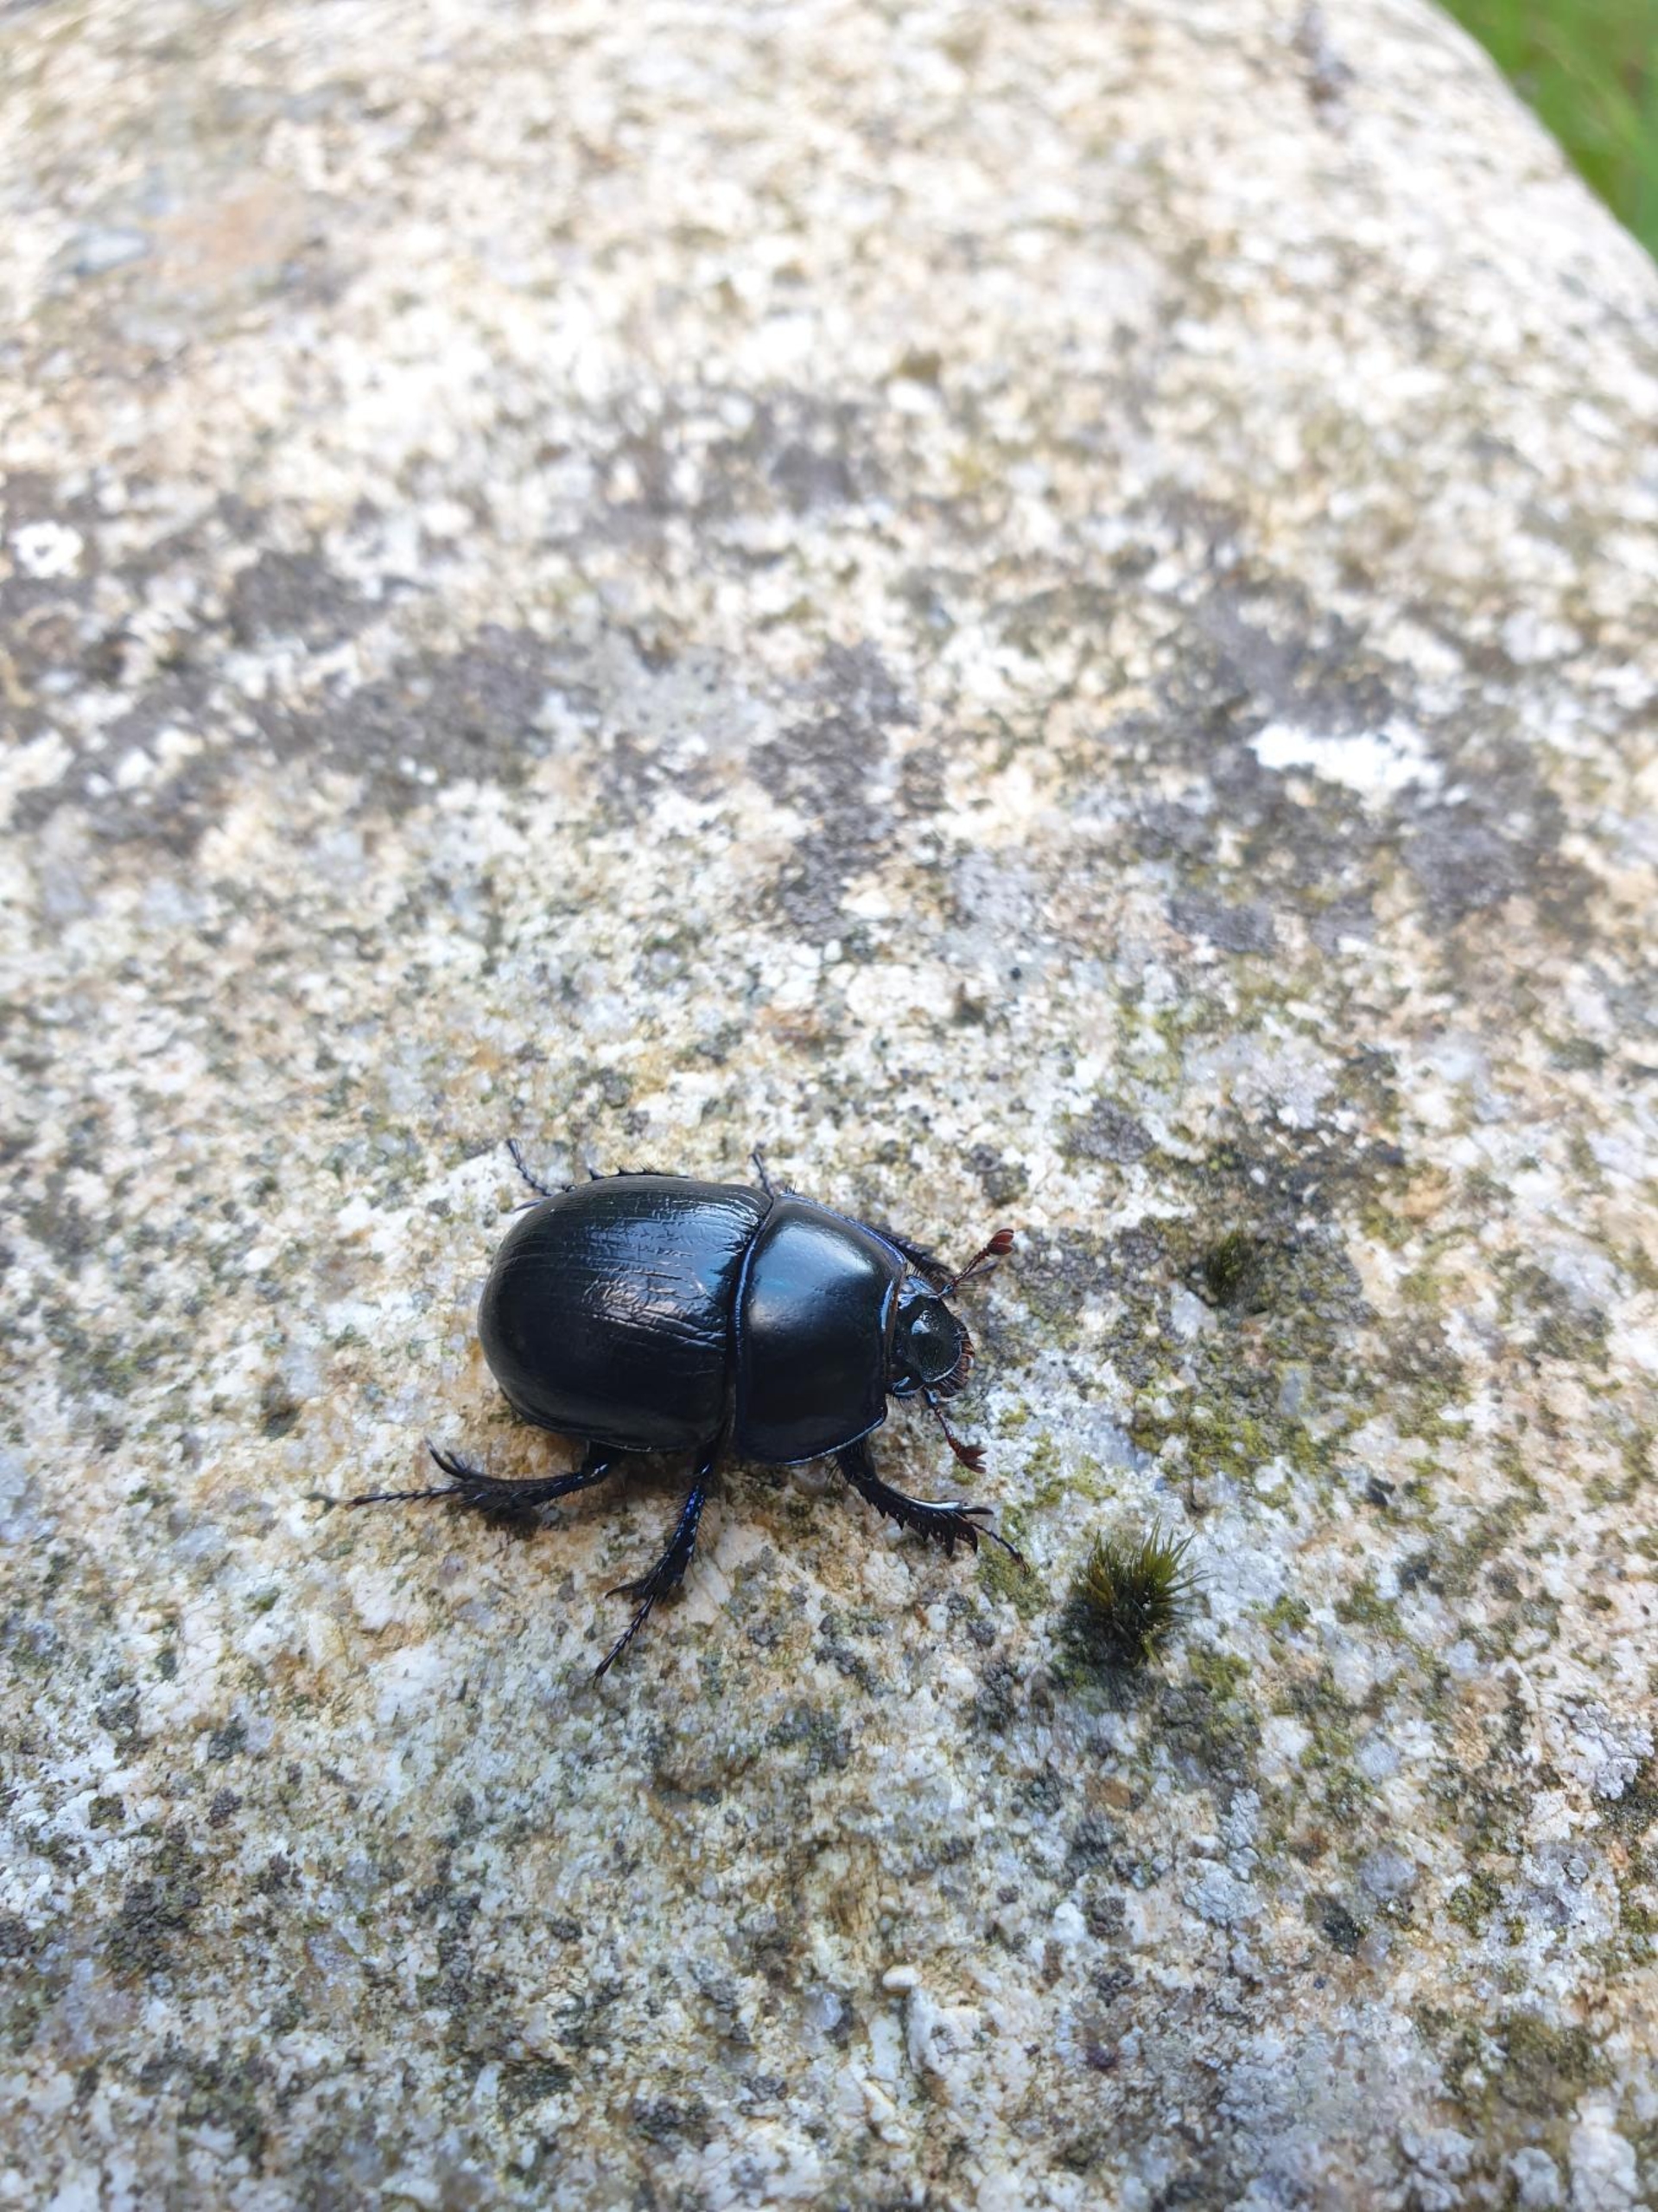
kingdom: Animalia
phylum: Arthropoda
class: Insecta
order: Coleoptera
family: Geotrupidae
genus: Anoplotrupes
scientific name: Anoplotrupes stercorosus
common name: Skovskarnbasse
